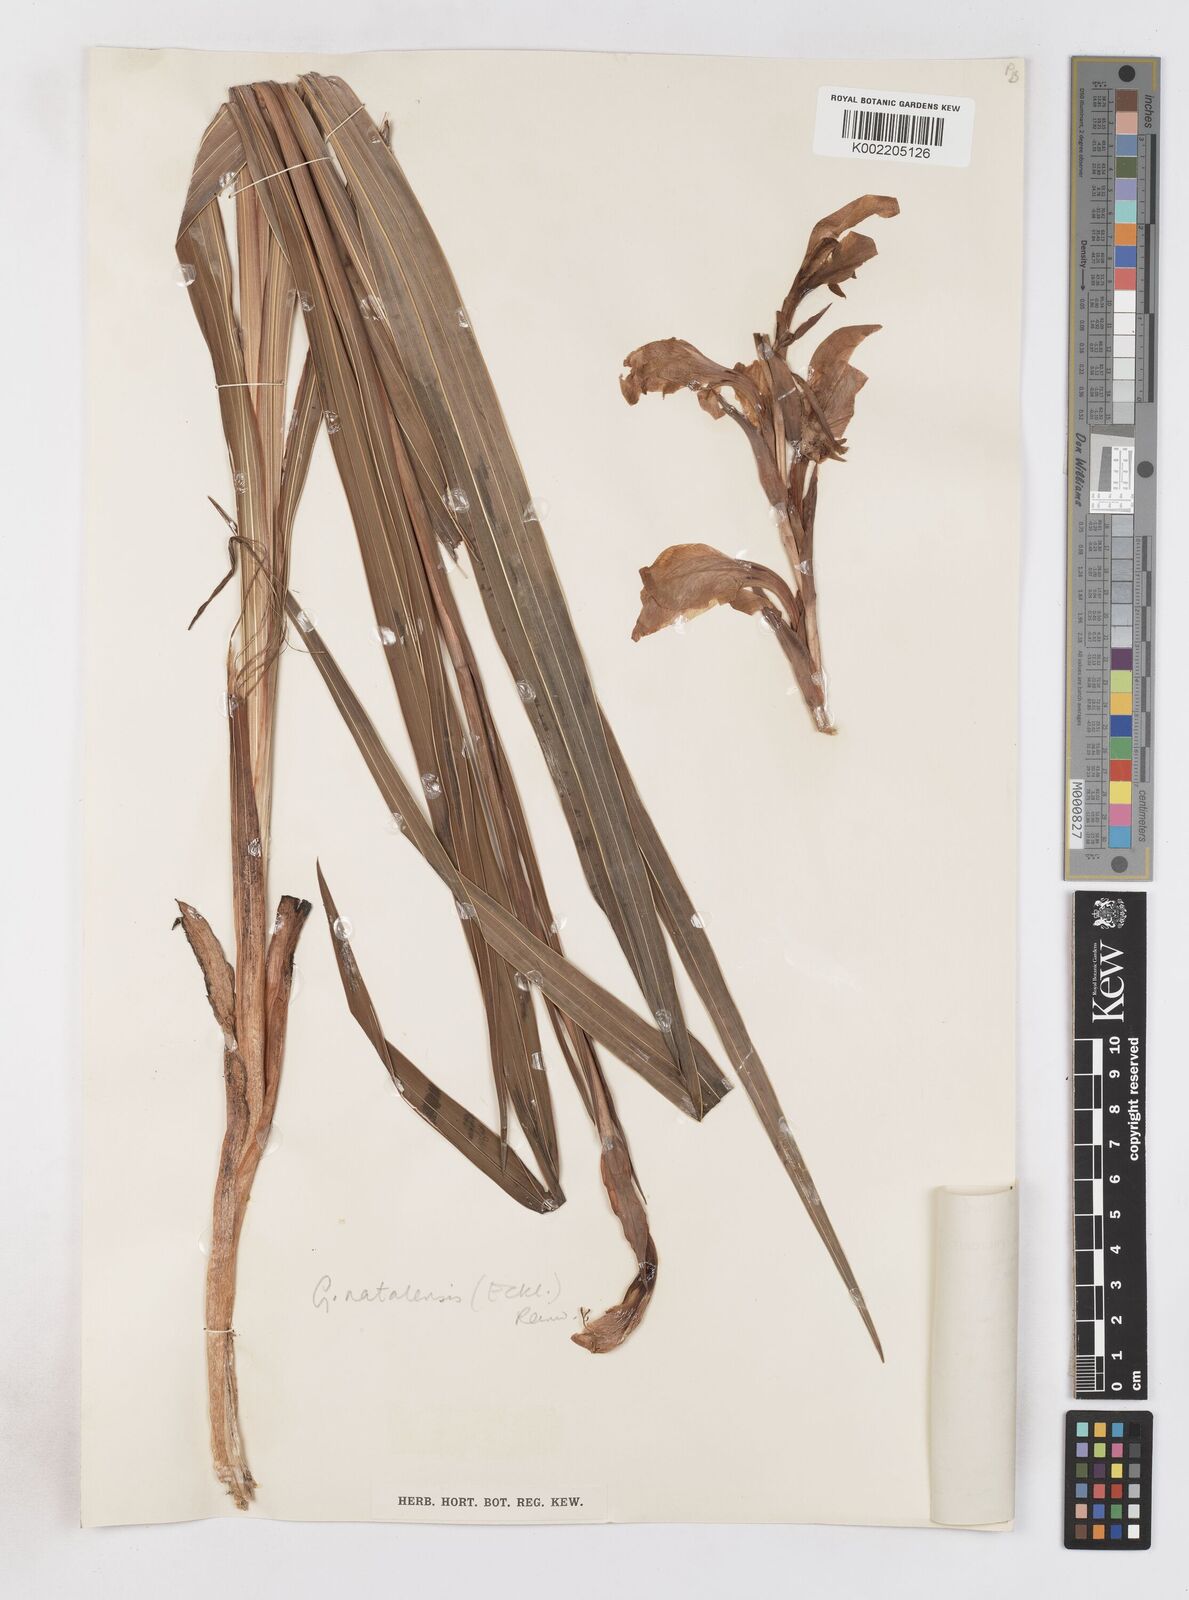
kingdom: Plantae
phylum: Tracheophyta
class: Liliopsida
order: Asparagales
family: Iridaceae
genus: Gladiolus
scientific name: Gladiolus dalenii
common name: Cornflag
